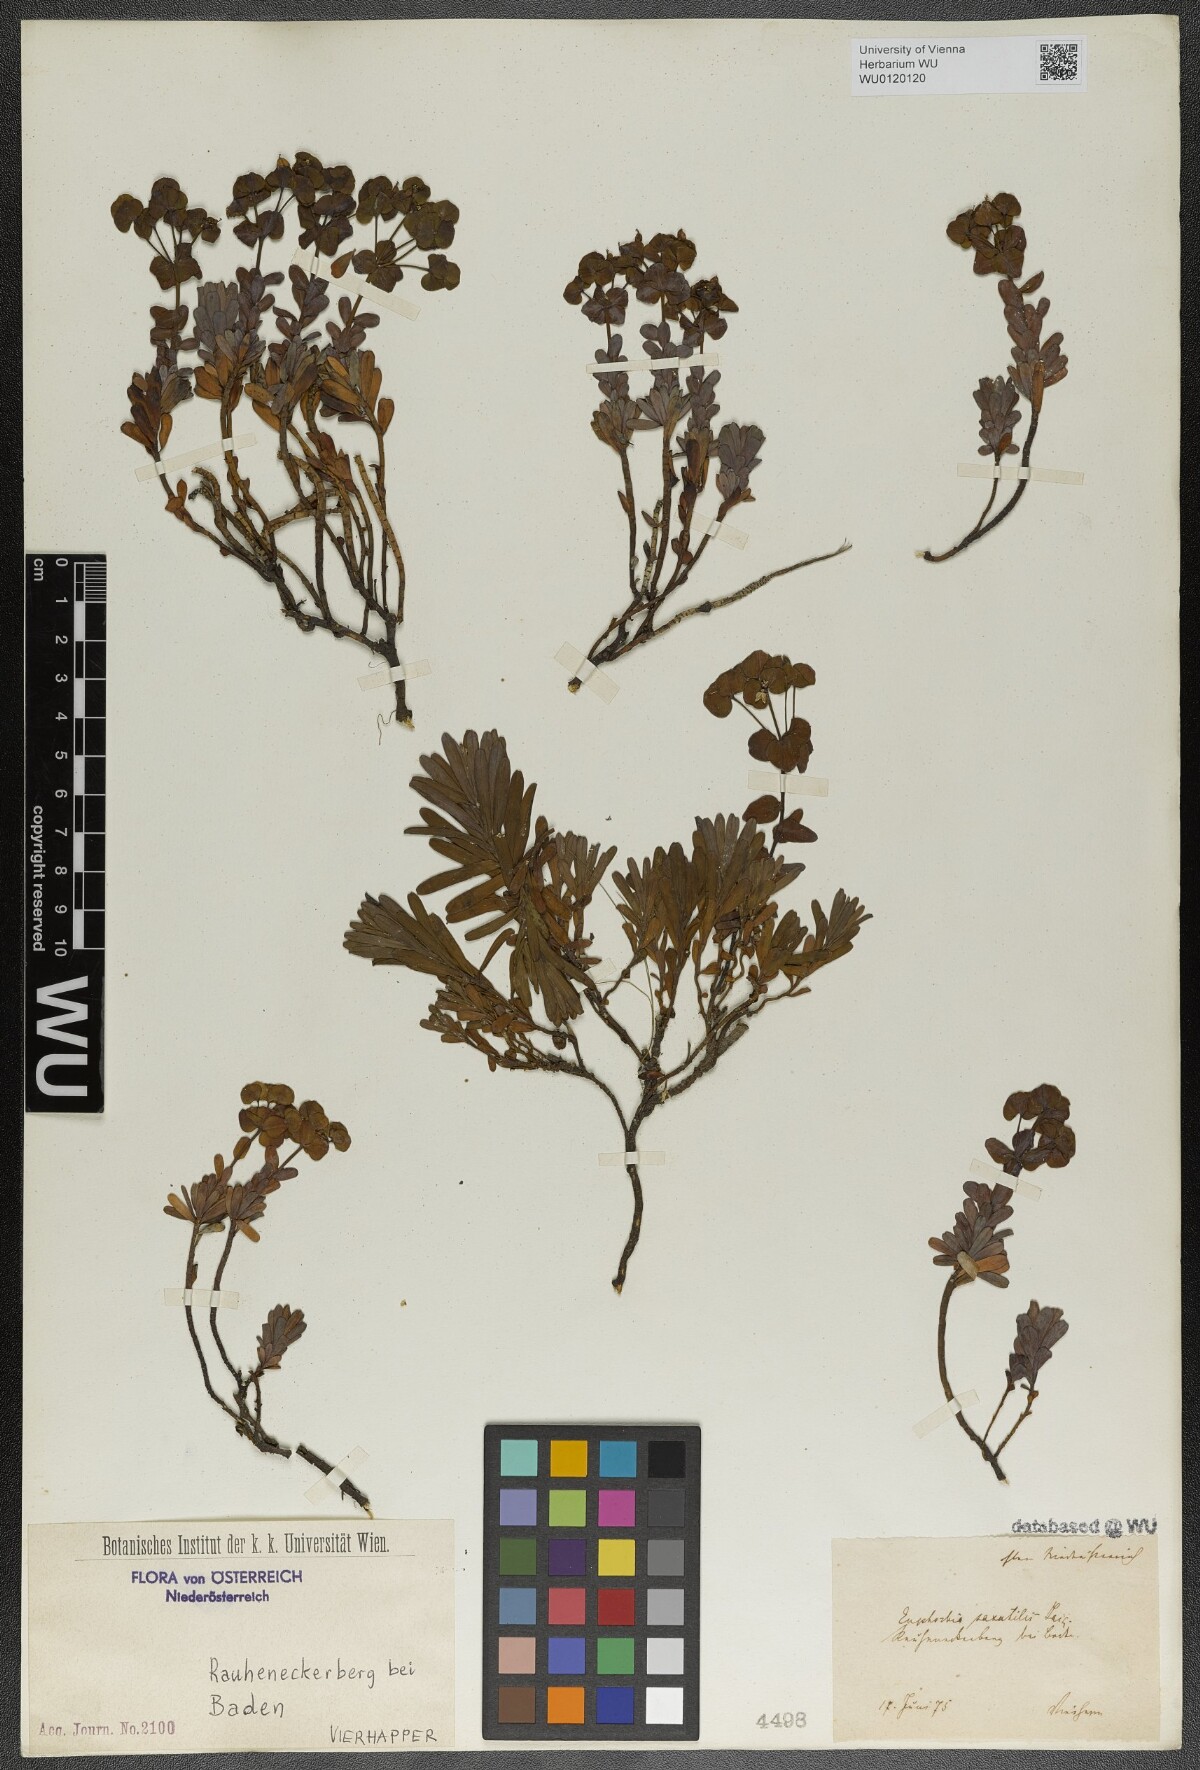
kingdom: Plantae
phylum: Tracheophyta
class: Magnoliopsida
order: Malpighiales
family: Euphorbiaceae
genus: Euphorbia
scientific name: Euphorbia saxatilis
